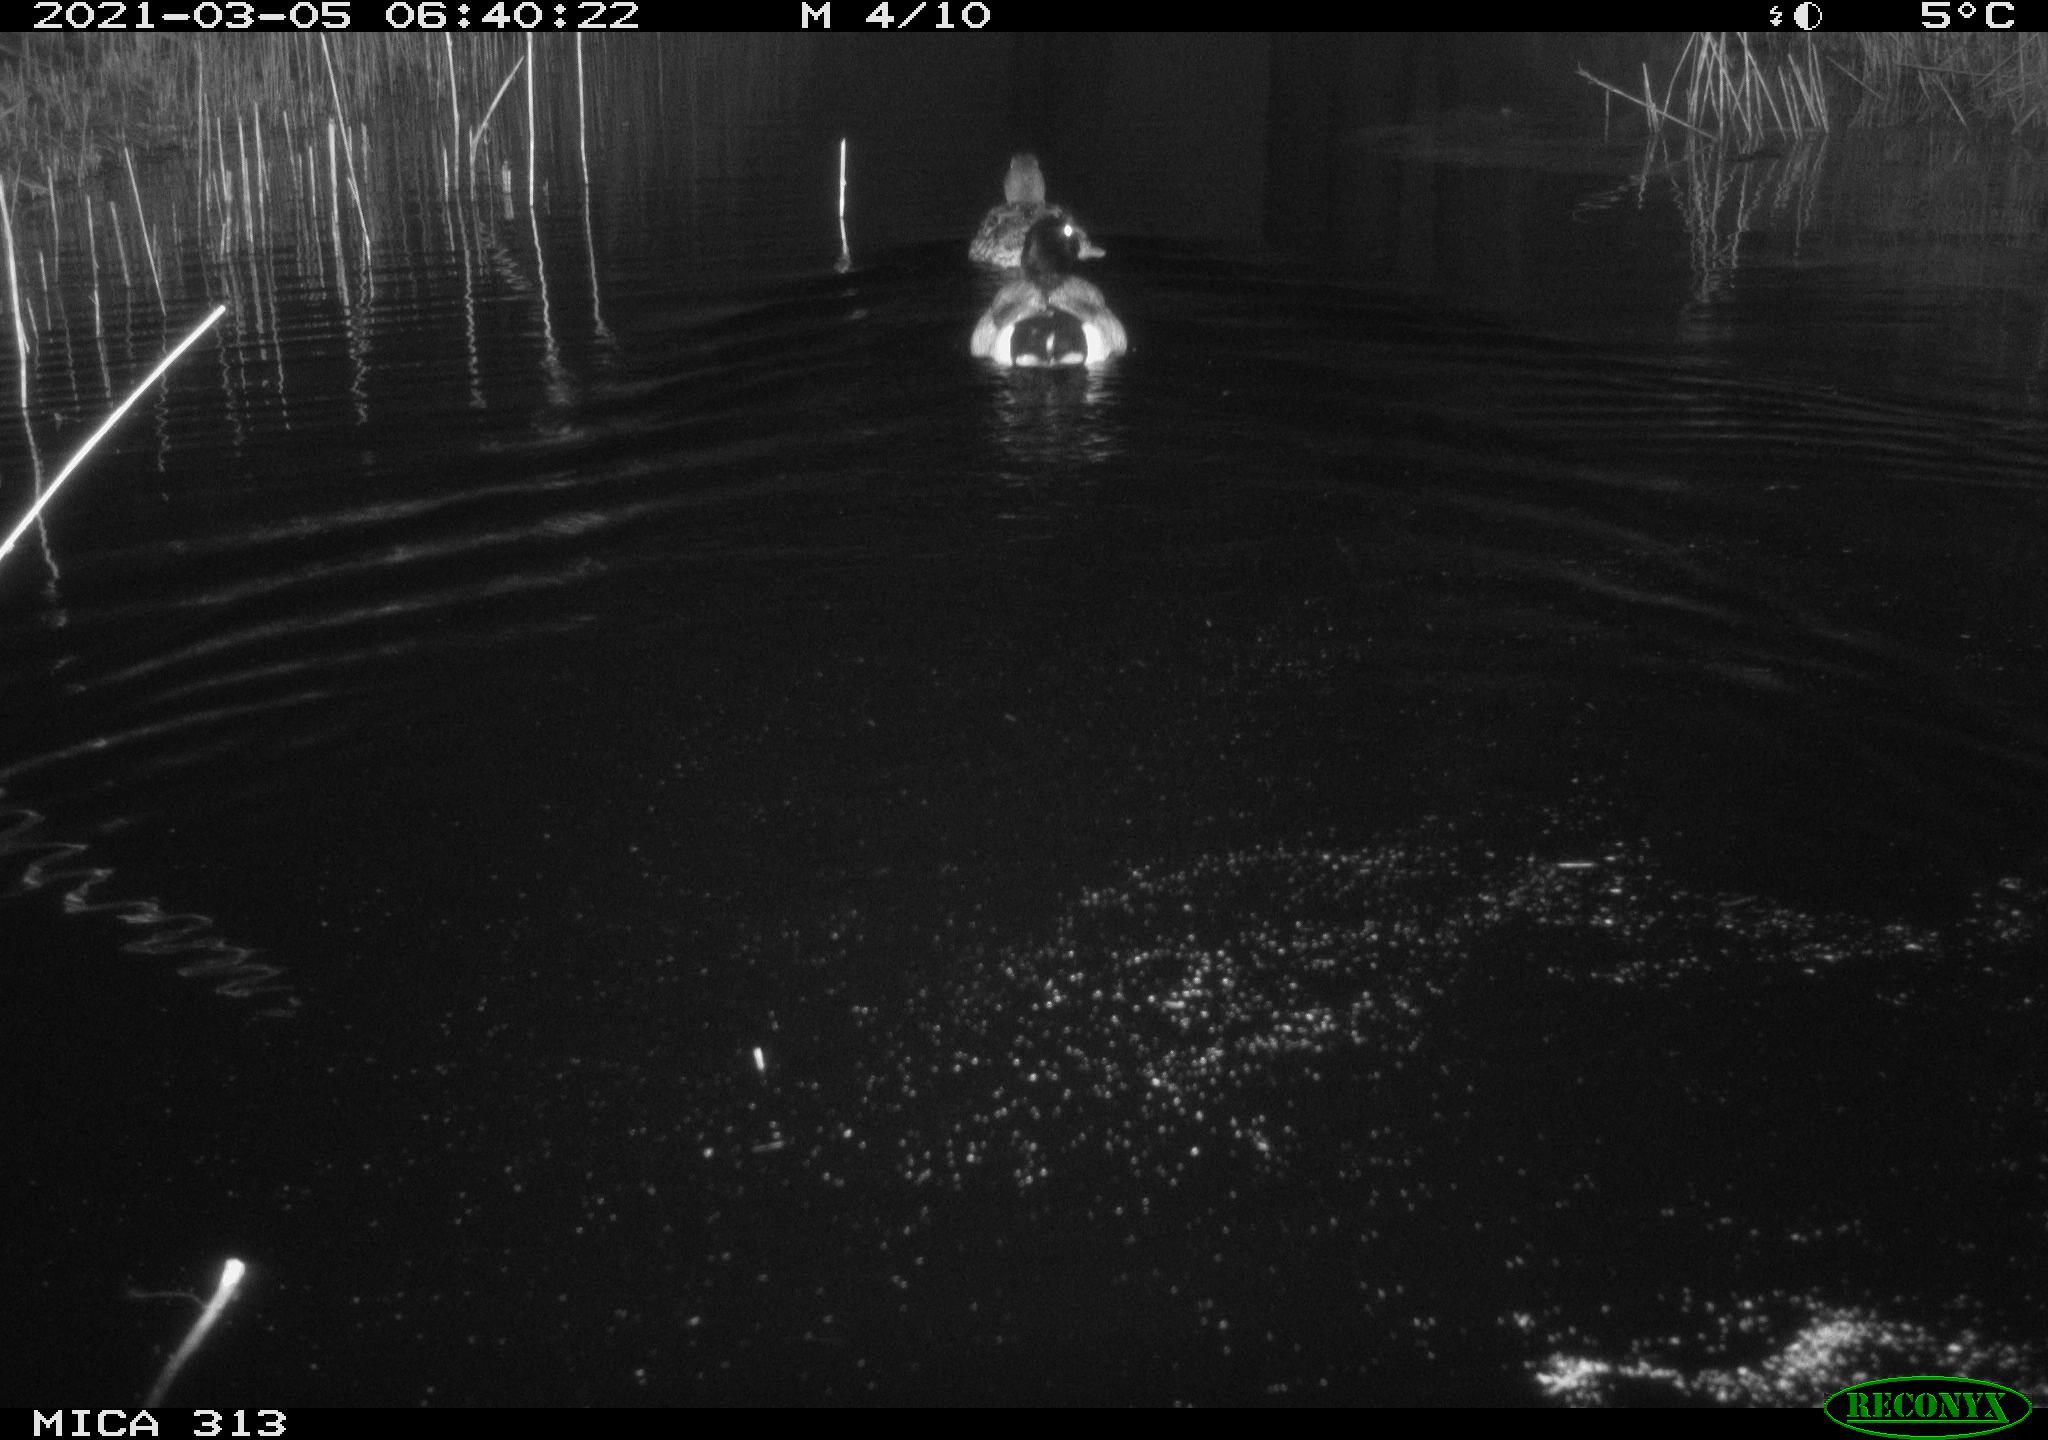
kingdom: Animalia
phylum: Chordata
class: Aves
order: Anseriformes
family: Anatidae
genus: Anas
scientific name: Anas platyrhynchos
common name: Mallard
